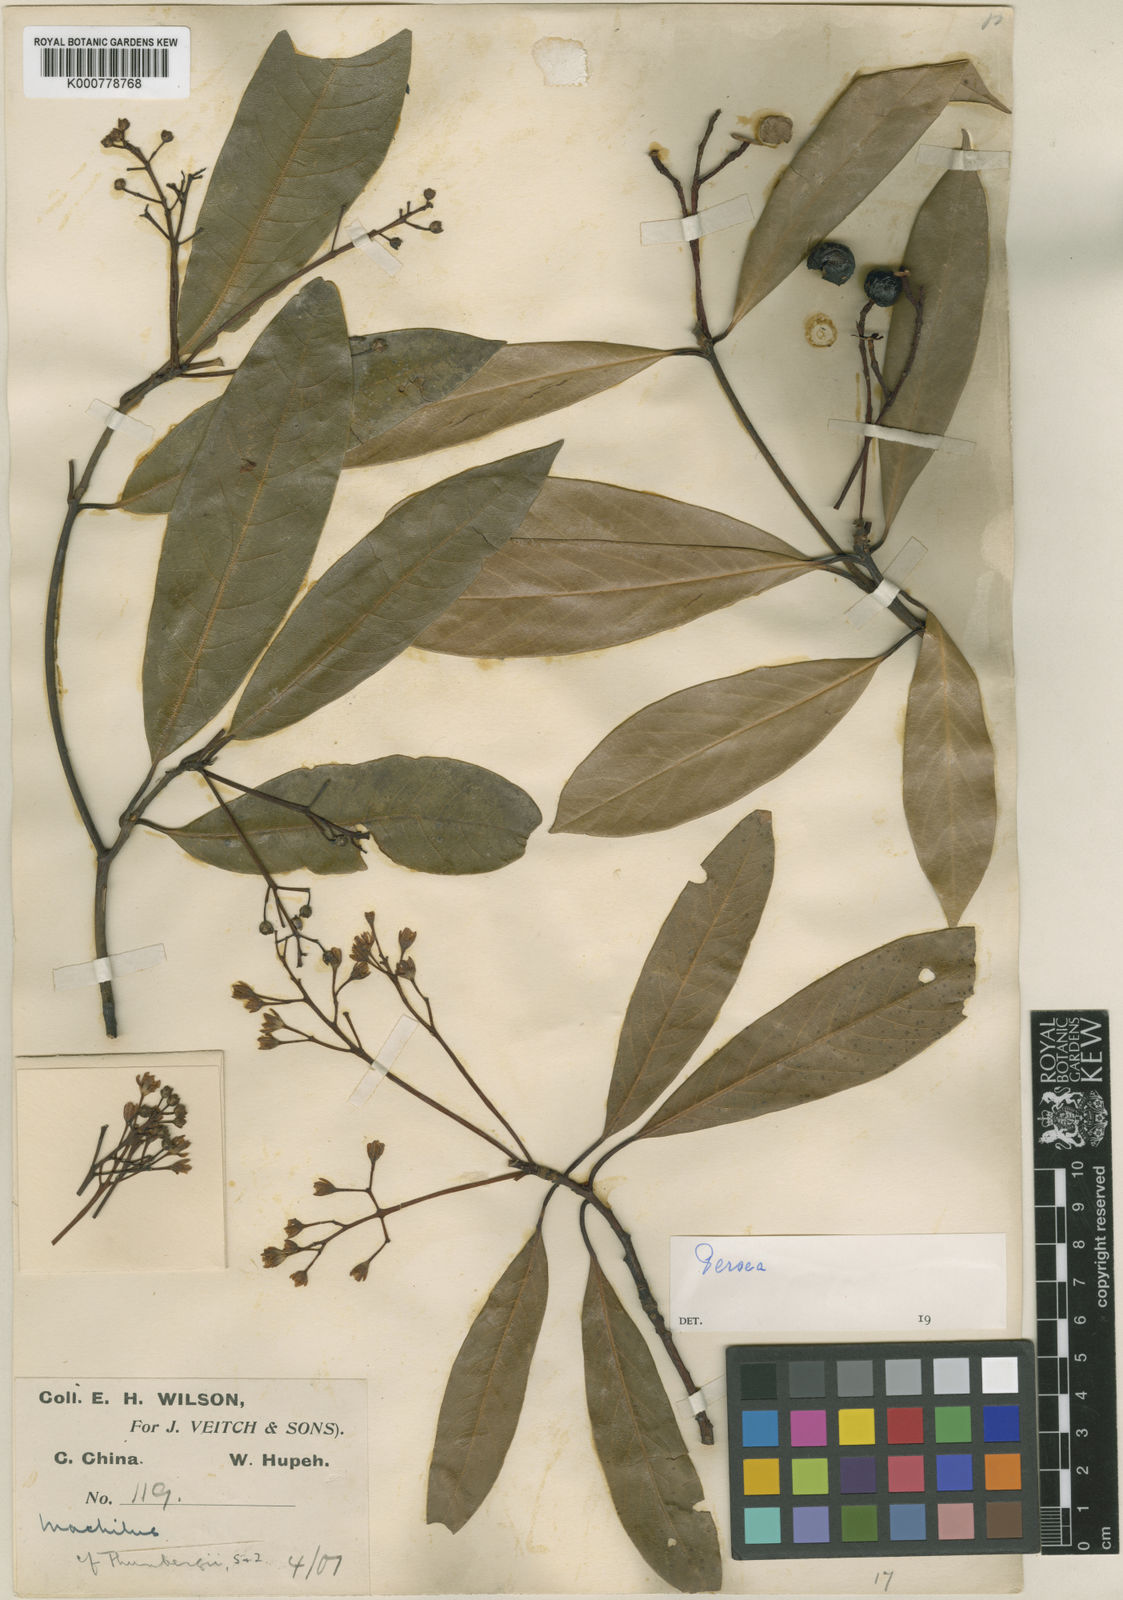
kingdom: Plantae
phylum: Tracheophyta
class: Magnoliopsida
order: Laurales
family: Lauraceae
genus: Machilus
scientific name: Machilus ichangensis
